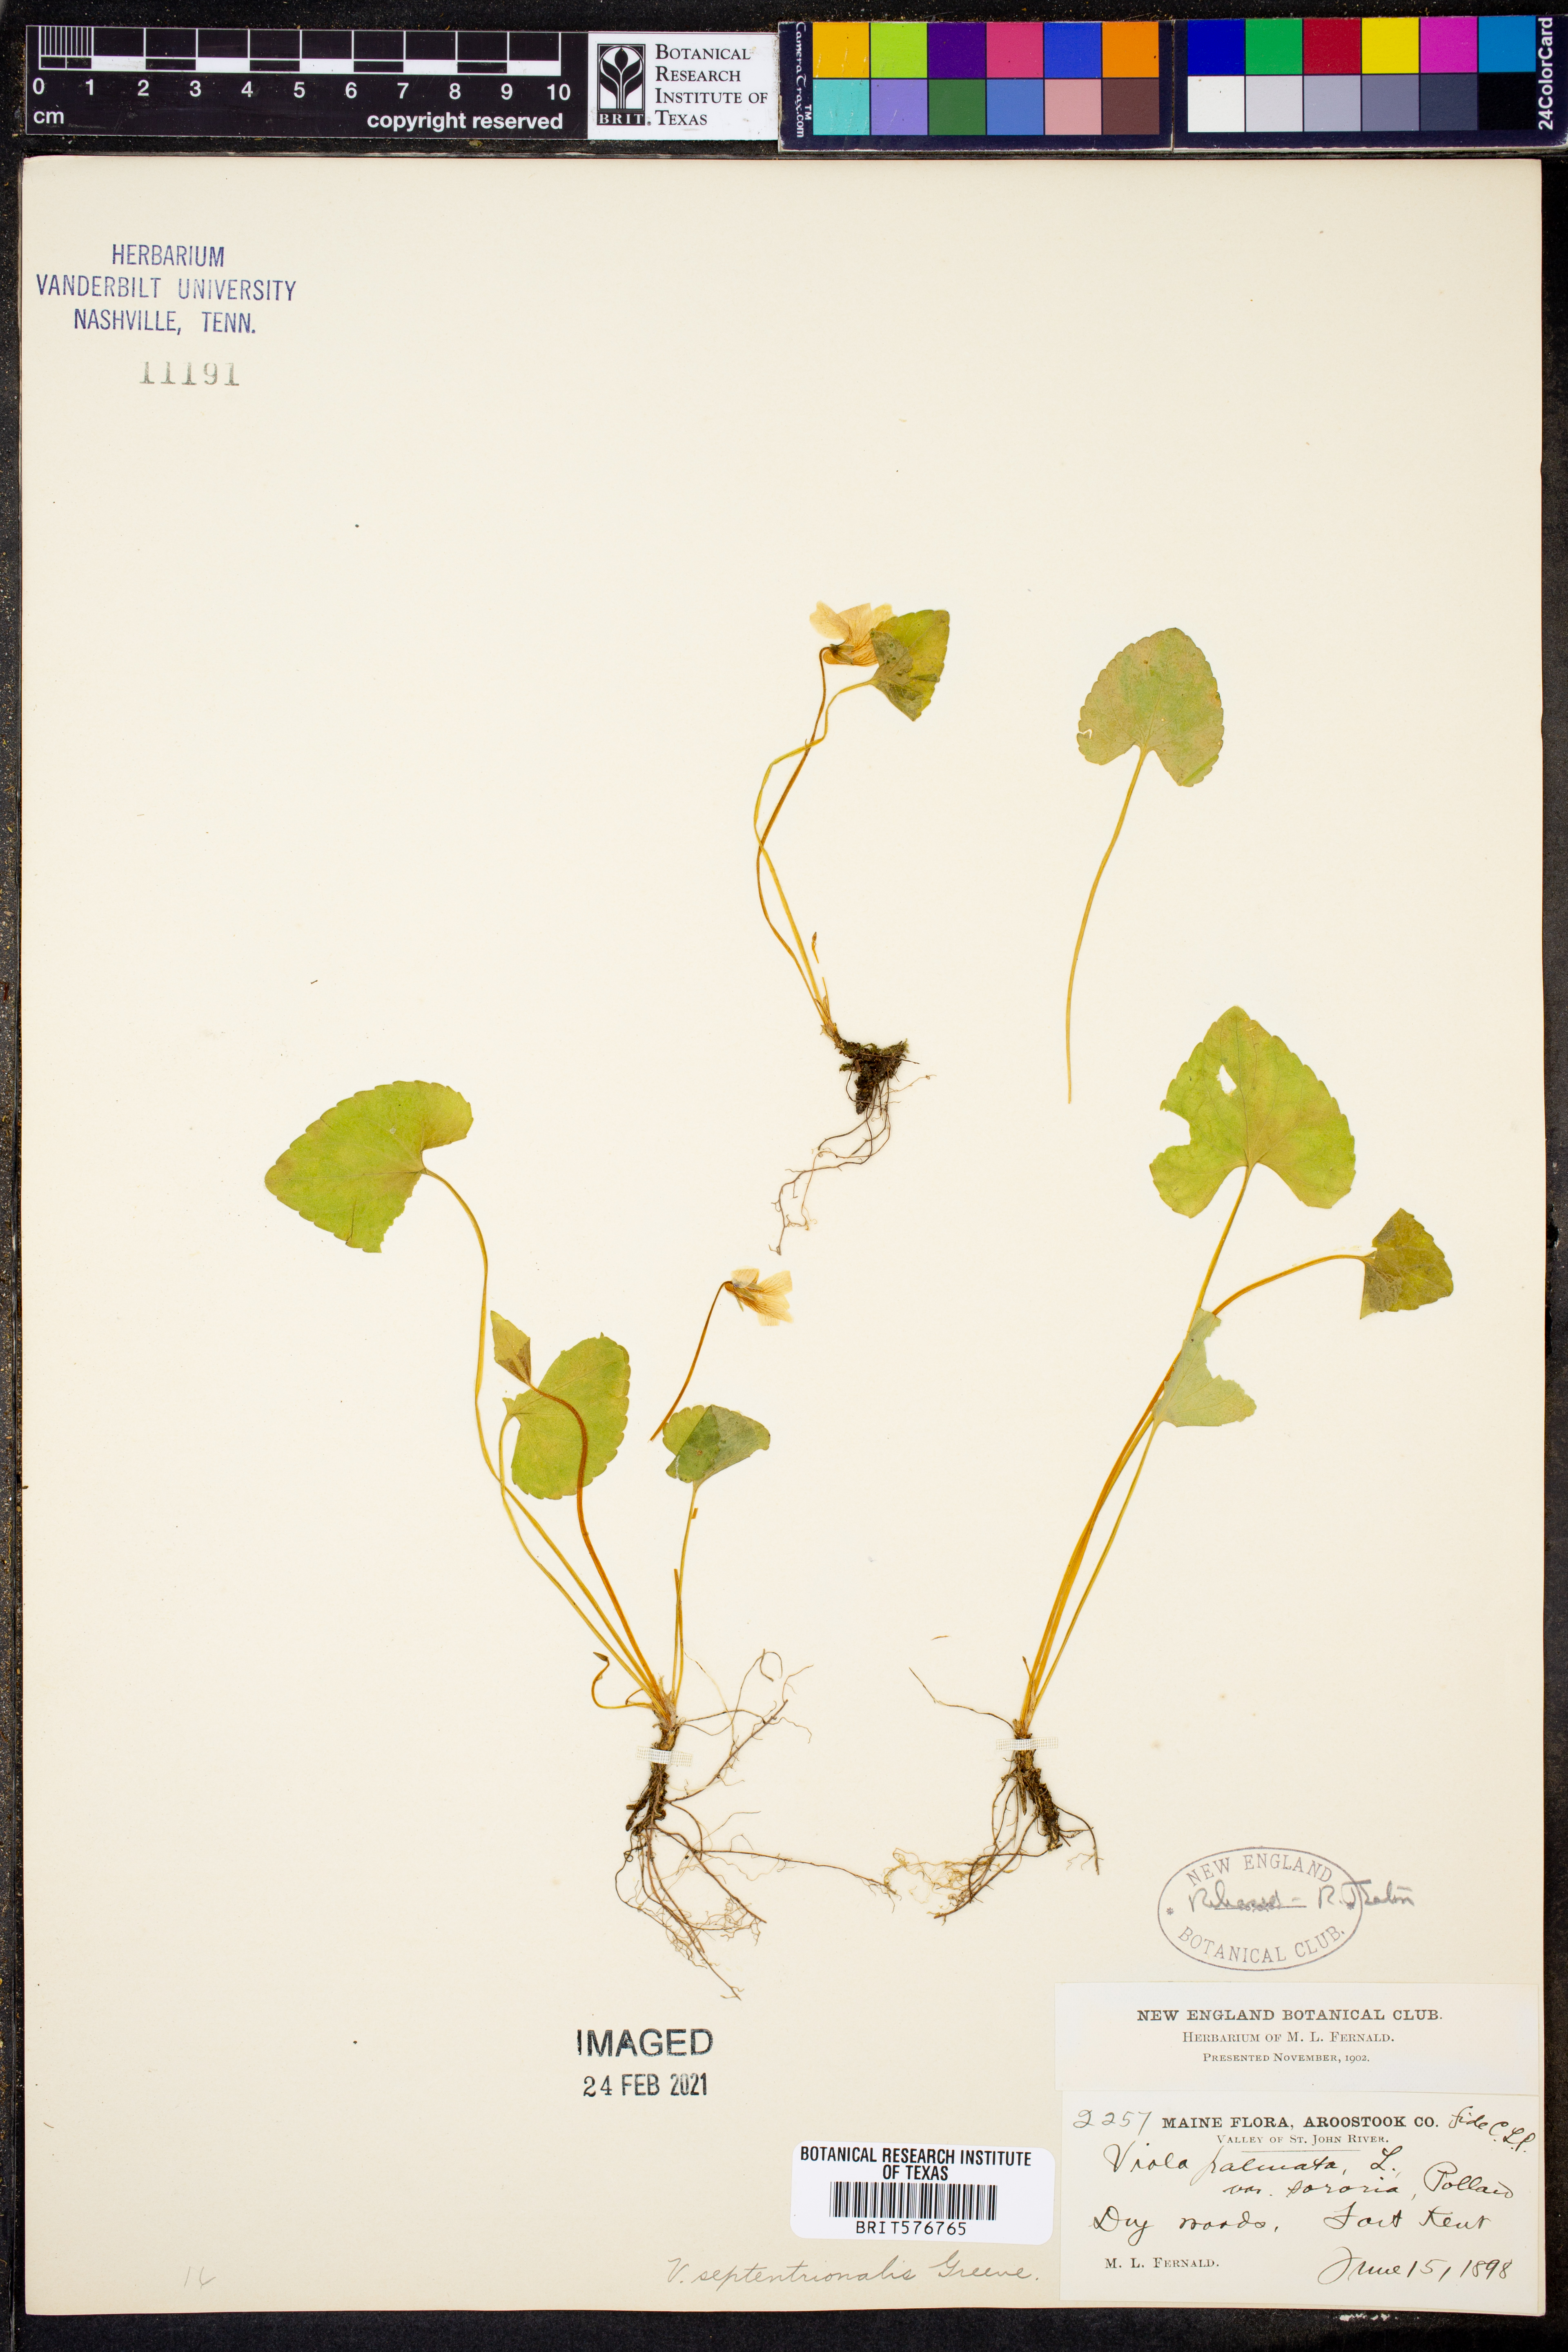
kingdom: Plantae
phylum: Tracheophyta
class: Magnoliopsida
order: Malpighiales
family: Violaceae
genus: Viola
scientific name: Viola septentrionalis
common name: Northern woodland violet
